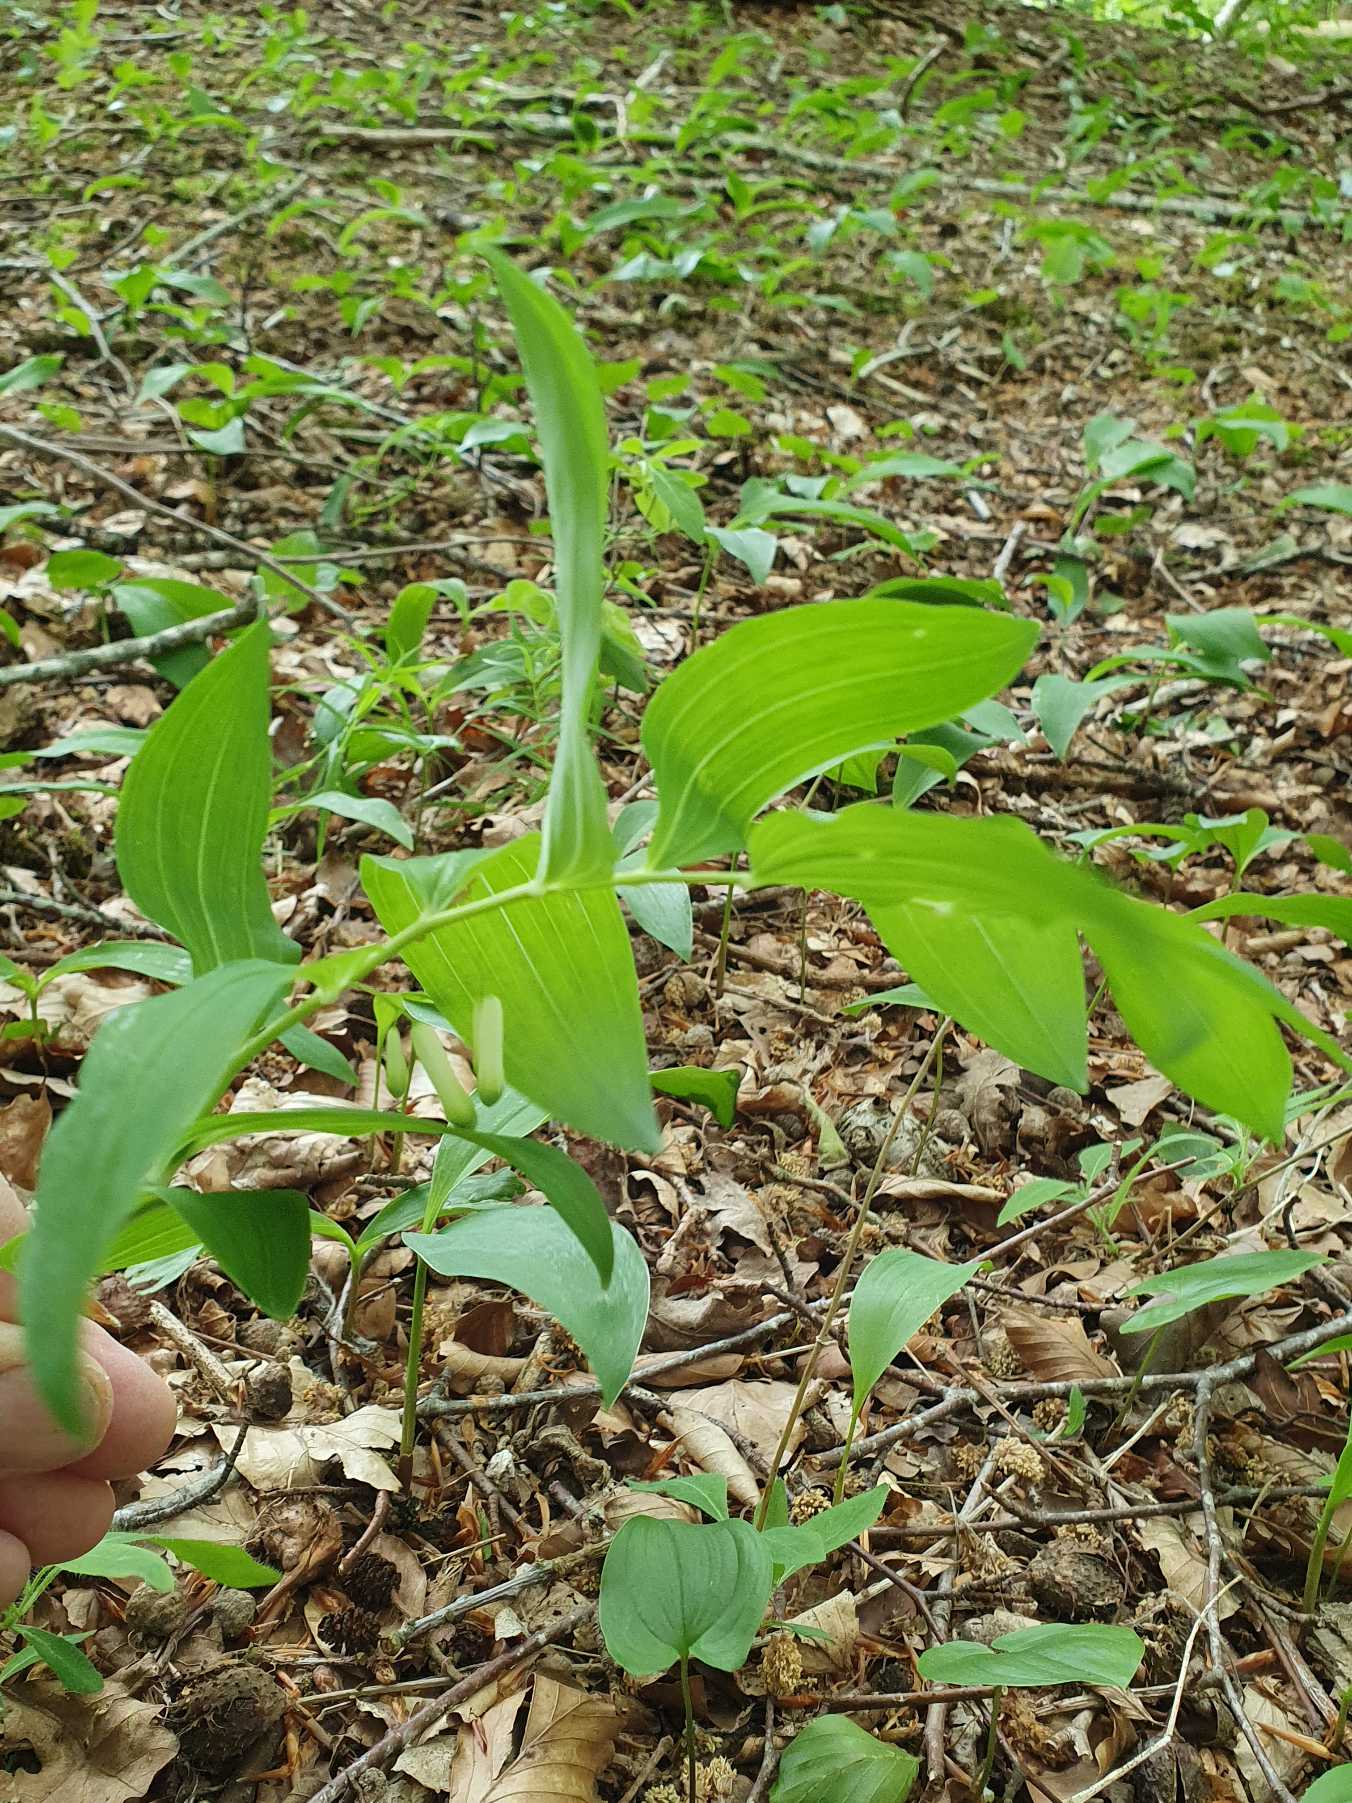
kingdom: Plantae
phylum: Tracheophyta
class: Liliopsida
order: Asparagales
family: Asparagaceae
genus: Polygonatum
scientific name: Polygonatum multiflorum
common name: Stor konval
